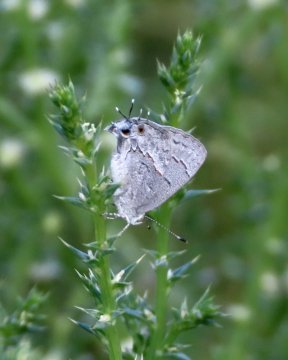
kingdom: Animalia
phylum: Arthropoda
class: Insecta
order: Lepidoptera
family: Lycaenidae
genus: Ministrymon
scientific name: Ministrymon leda
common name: Leda Ministreak
